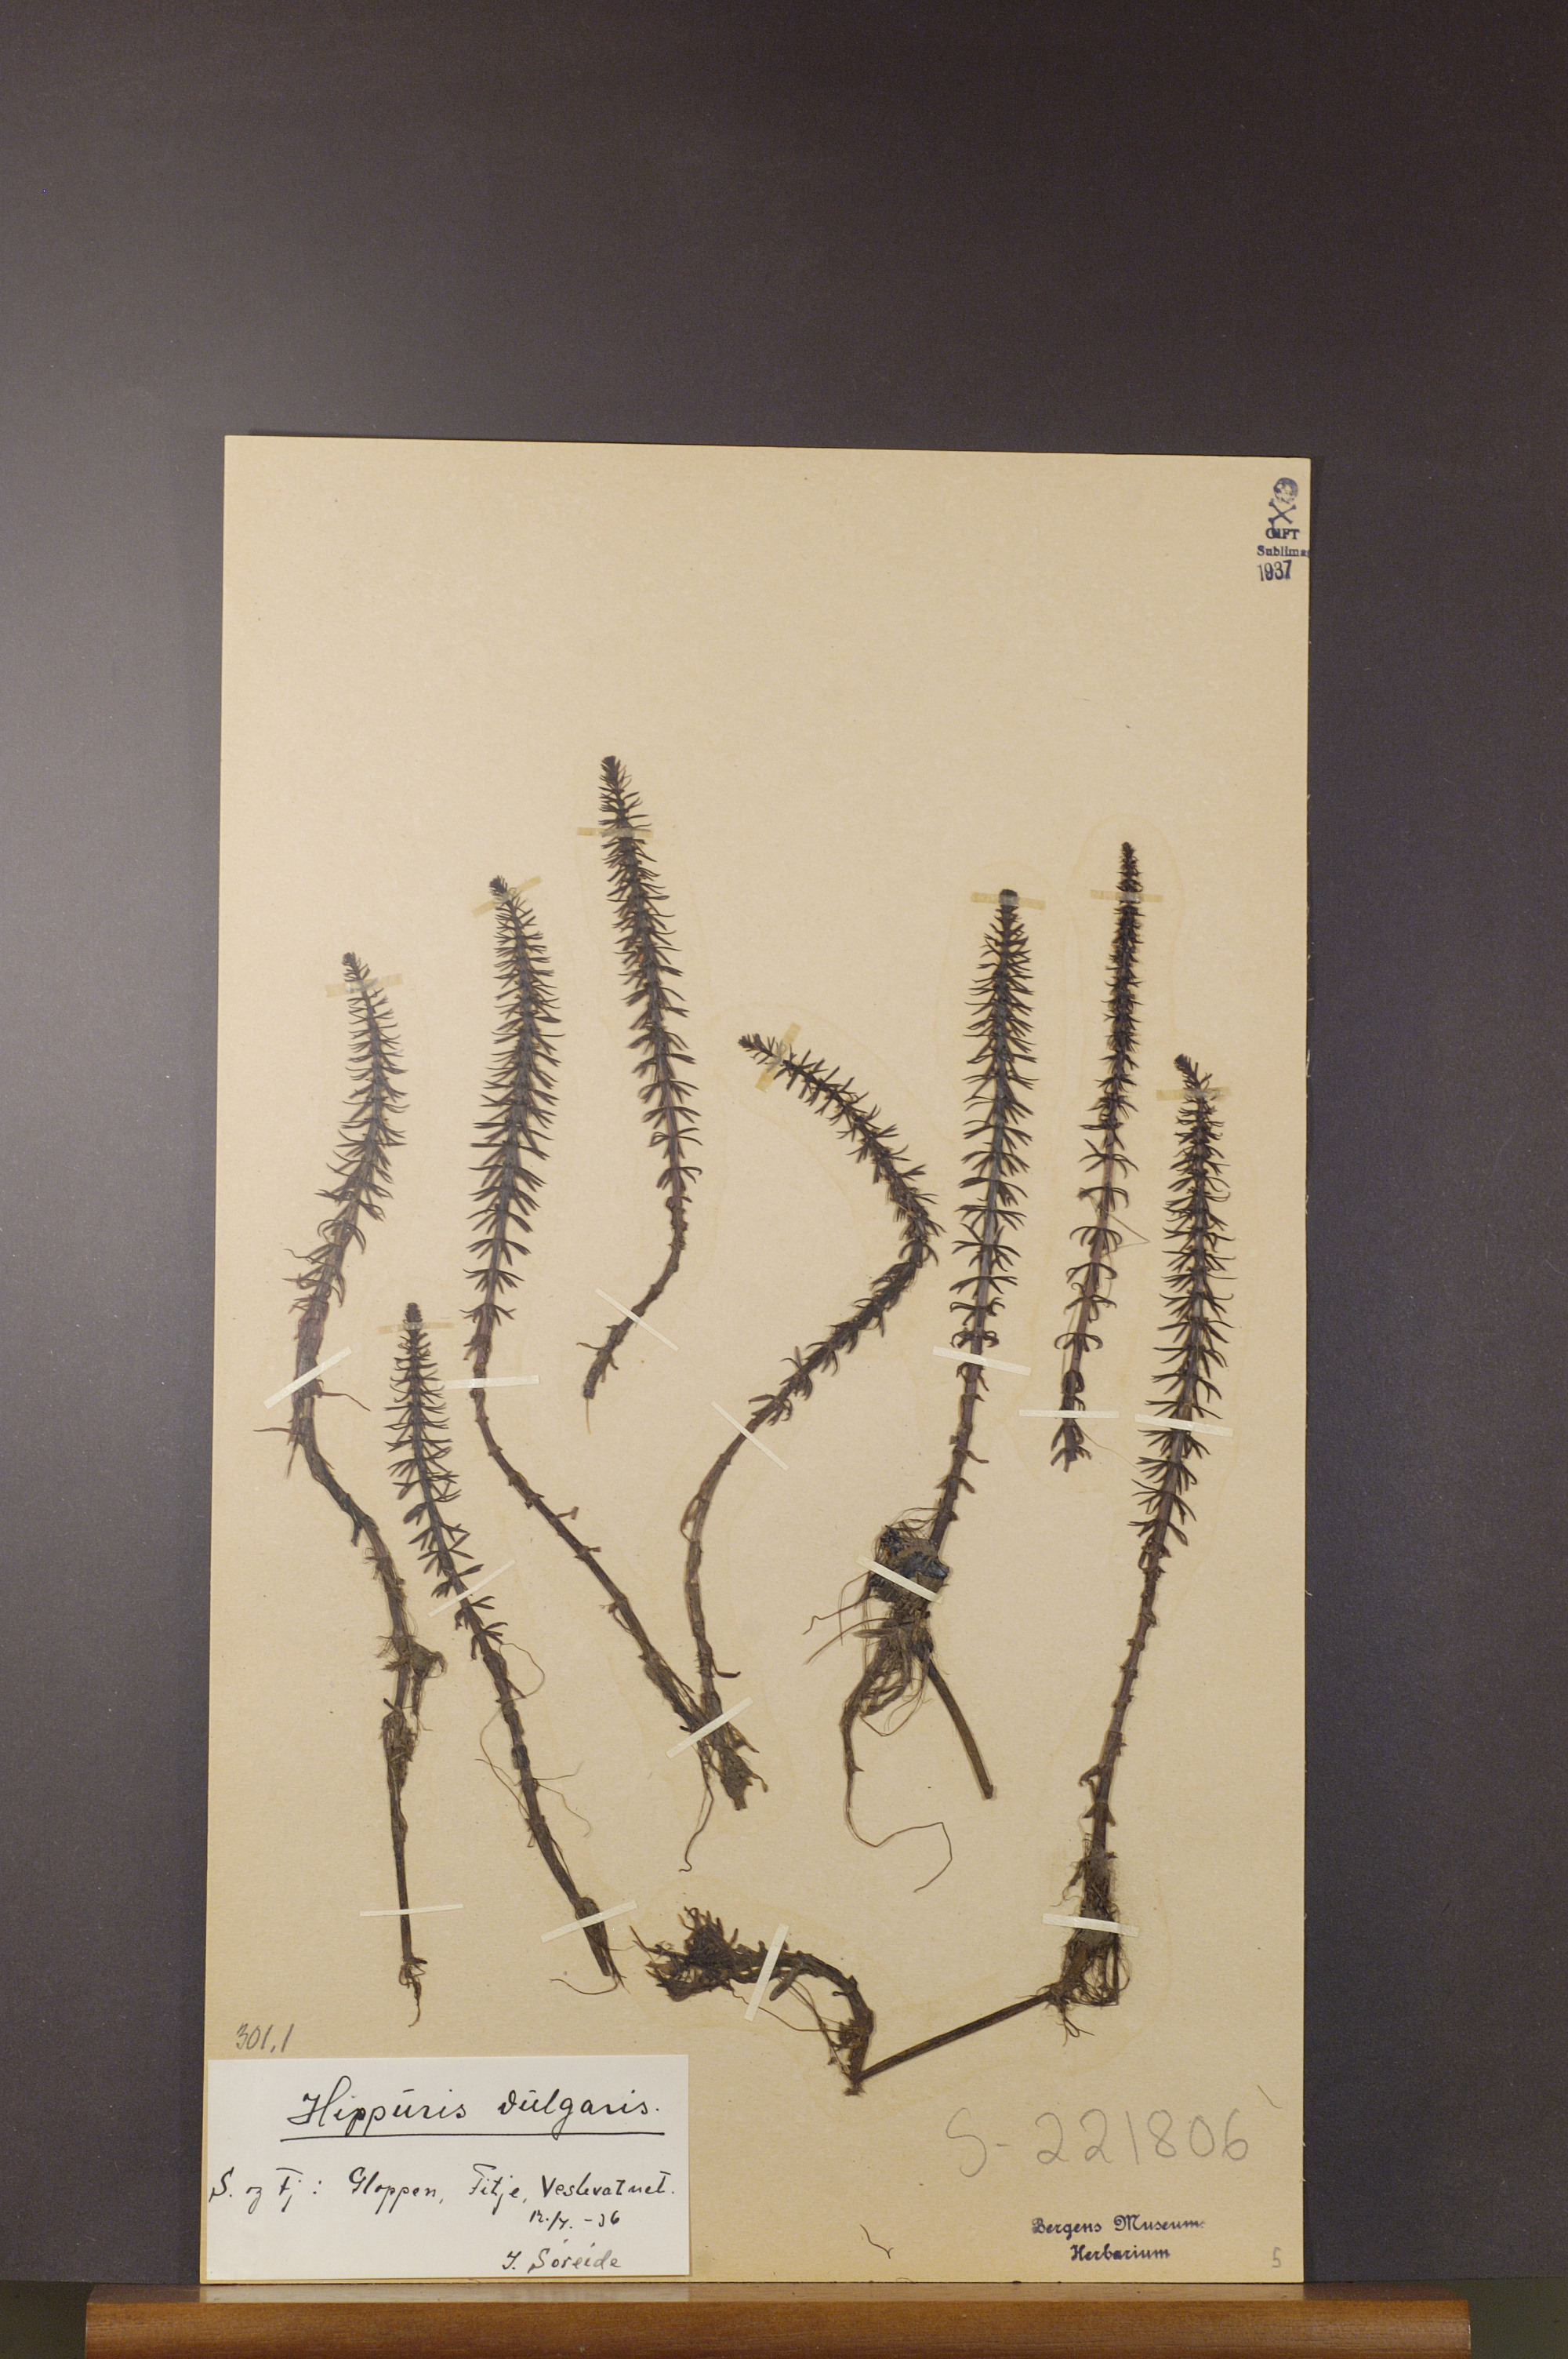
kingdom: Plantae
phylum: Tracheophyta
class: Magnoliopsida
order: Lamiales
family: Plantaginaceae
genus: Hippuris
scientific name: Hippuris vulgaris
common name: Mare's-tail
